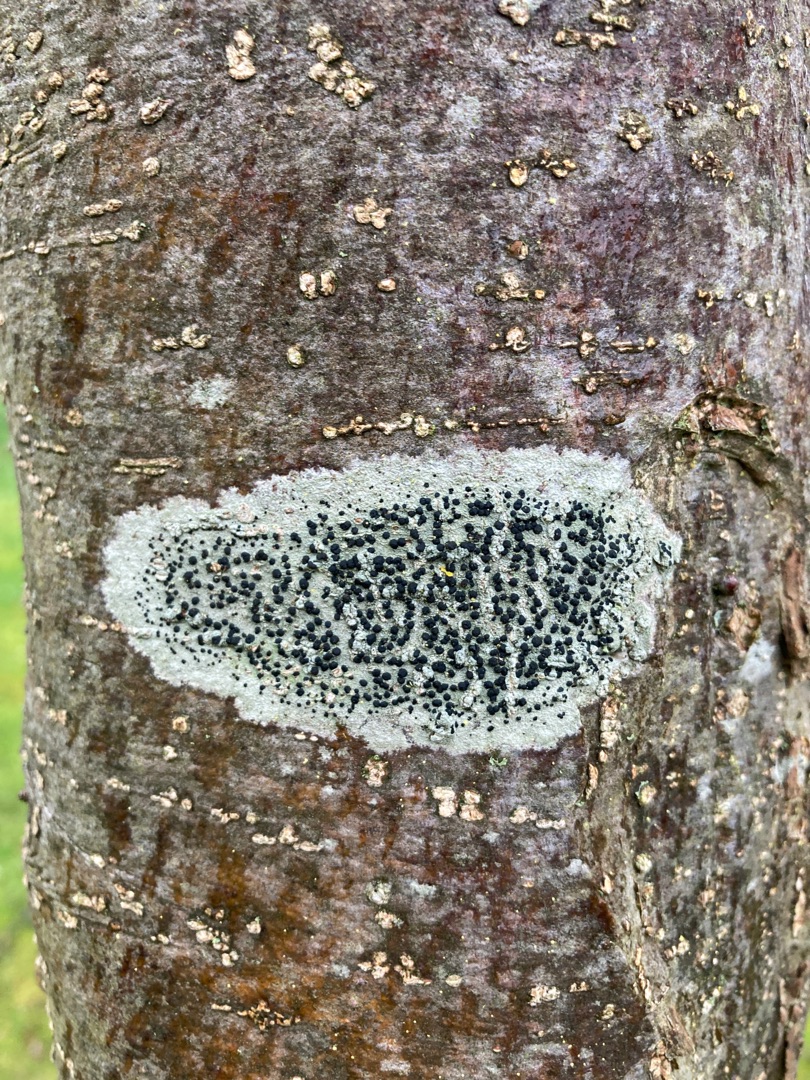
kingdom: Fungi
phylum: Ascomycota
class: Lecanoromycetes
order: Lecanorales
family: Lecanoraceae
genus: Lecidella
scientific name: Lecidella elaeochroma
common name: Grågrøn skivelav
